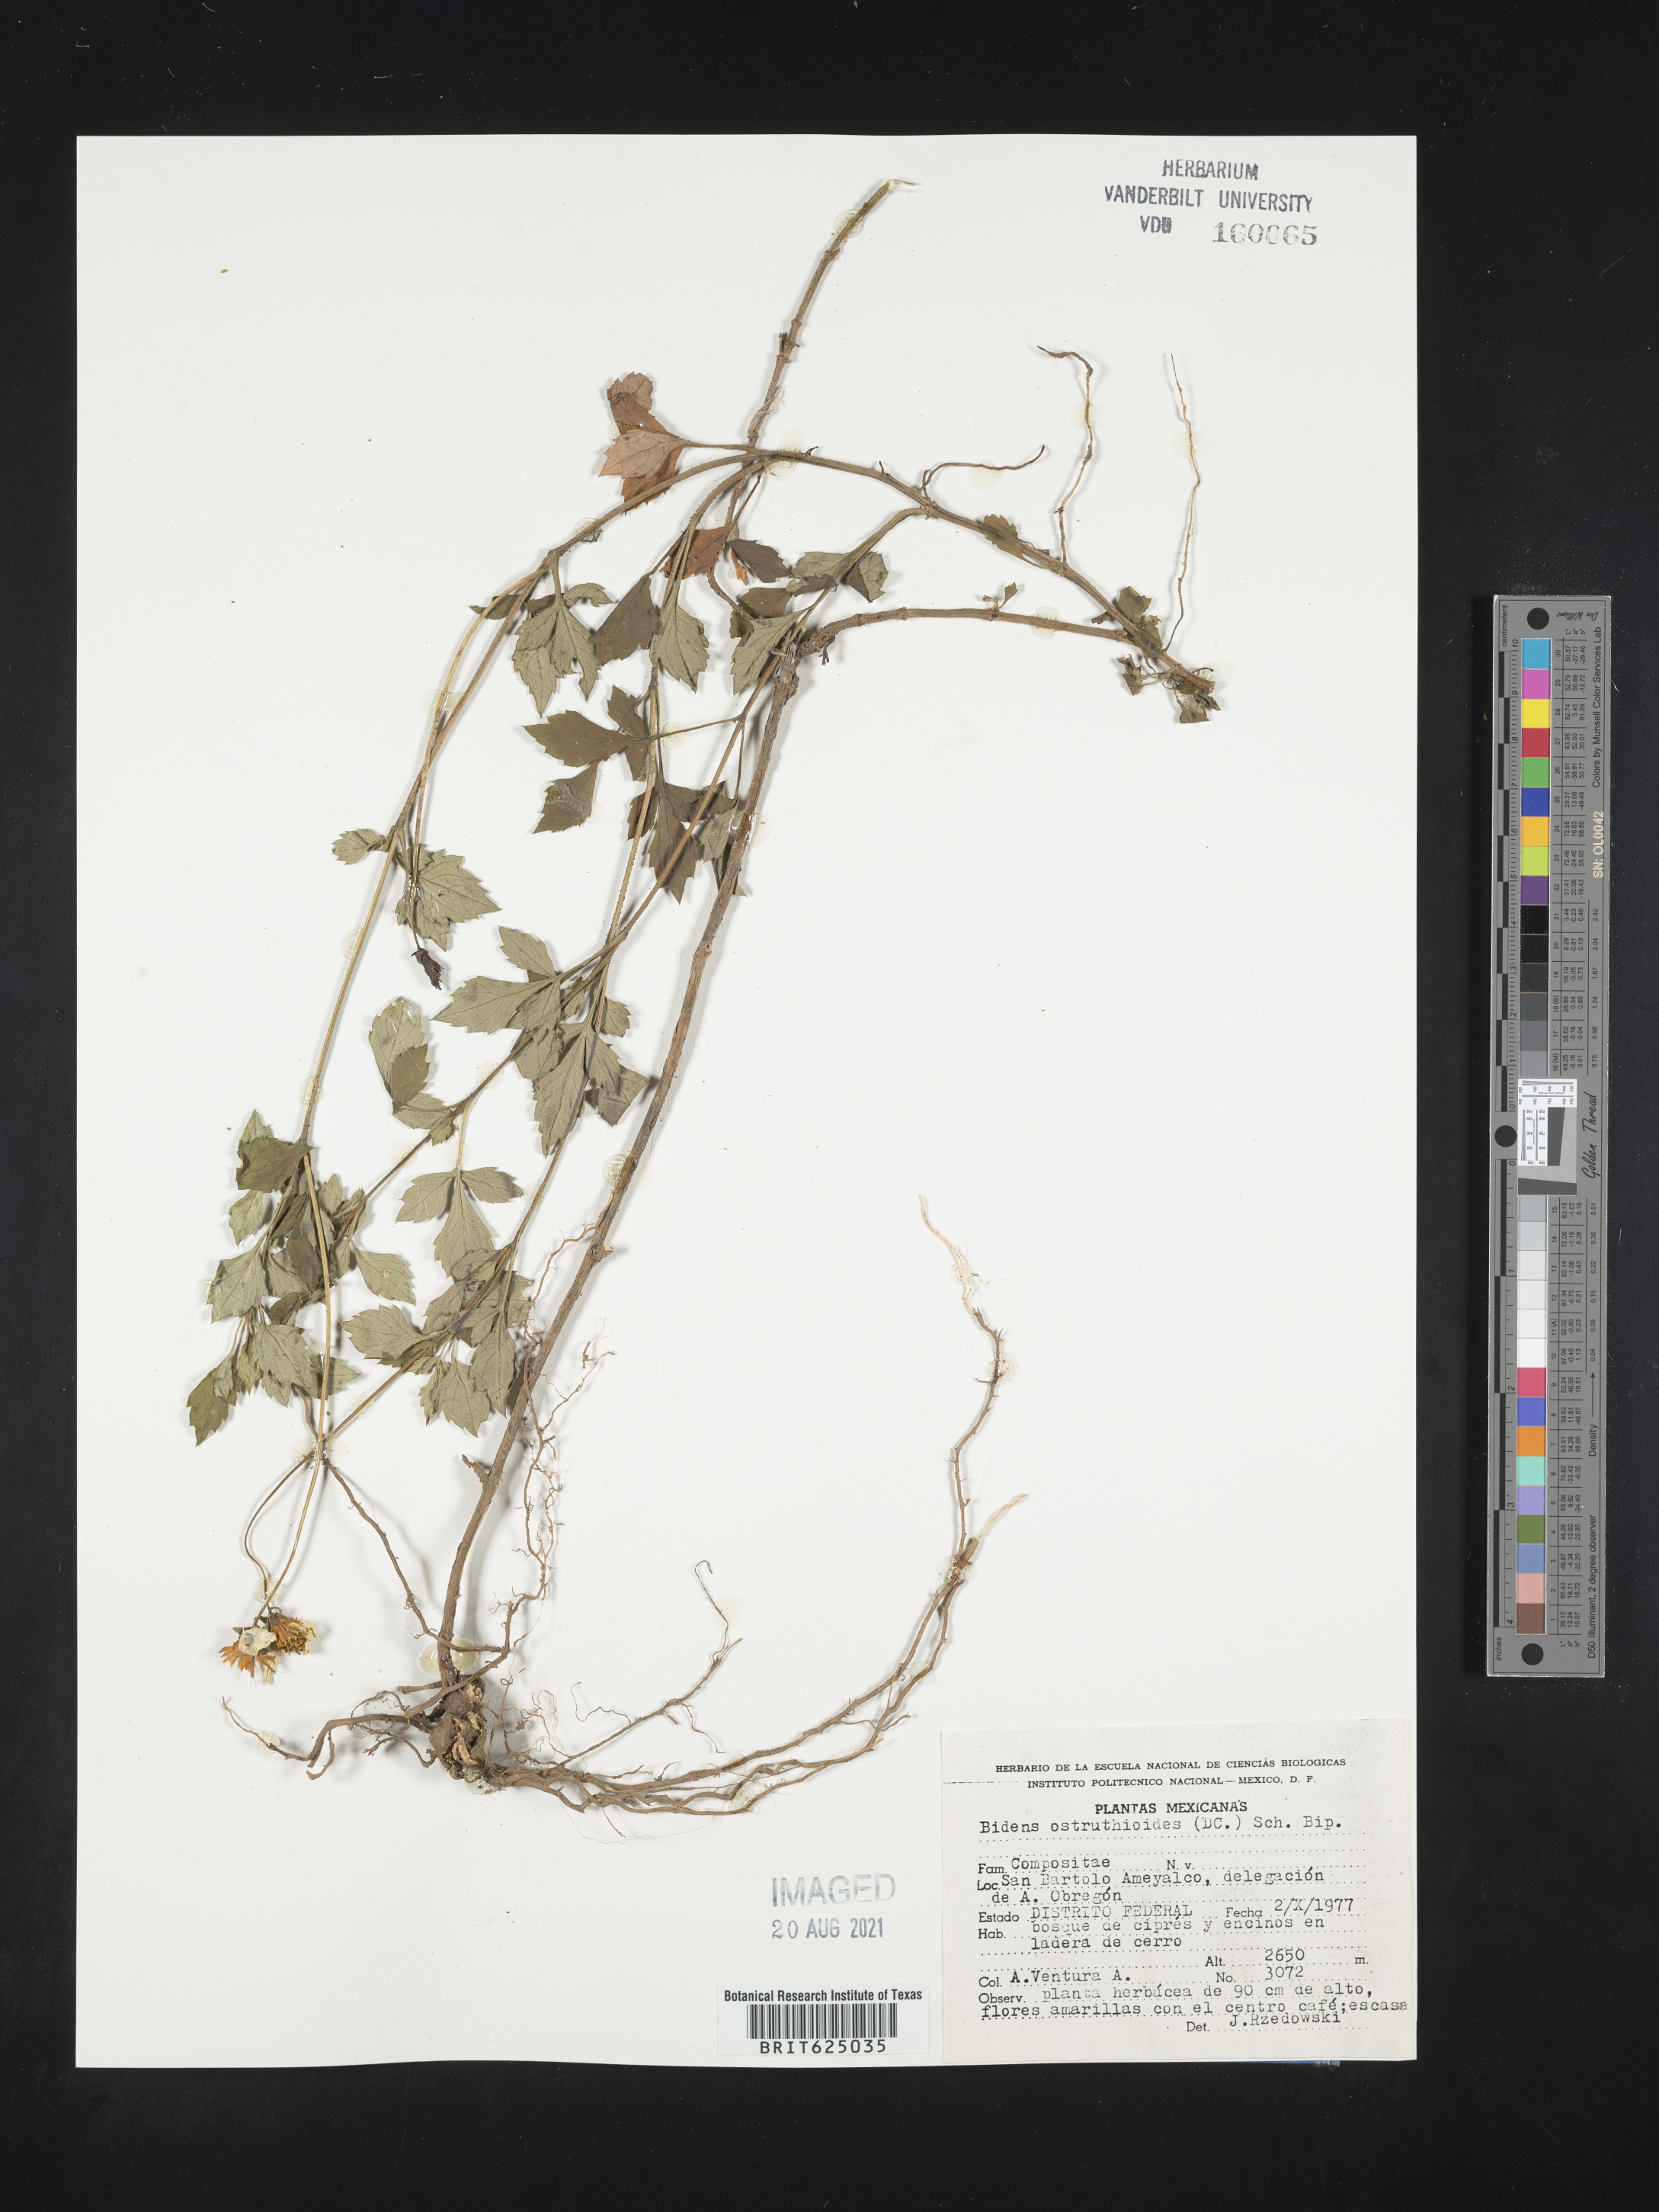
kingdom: Plantae
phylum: Tracheophyta
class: Magnoliopsida
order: Asterales
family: Asteraceae
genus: Bidens
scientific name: Bidens
